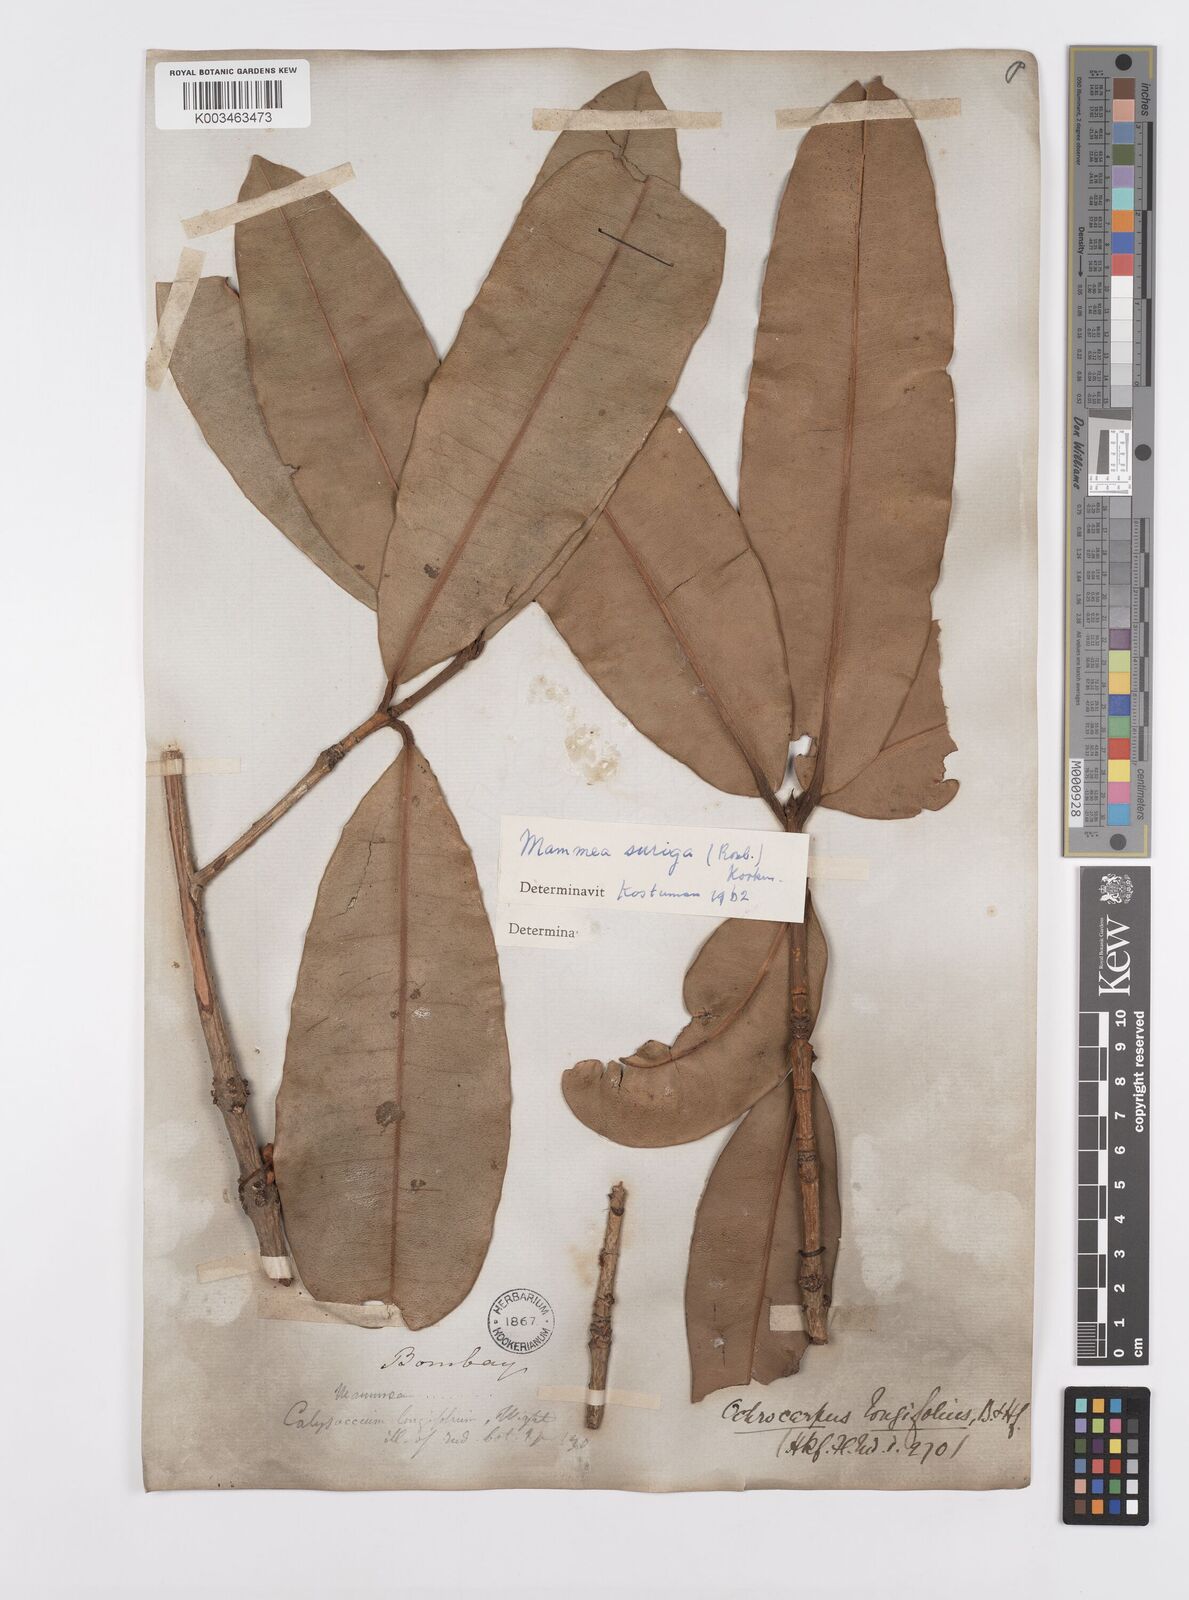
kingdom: Plantae
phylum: Tracheophyta
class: Magnoliopsida
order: Malpighiales
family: Calophyllaceae
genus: Mammea
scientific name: Mammea suriga
